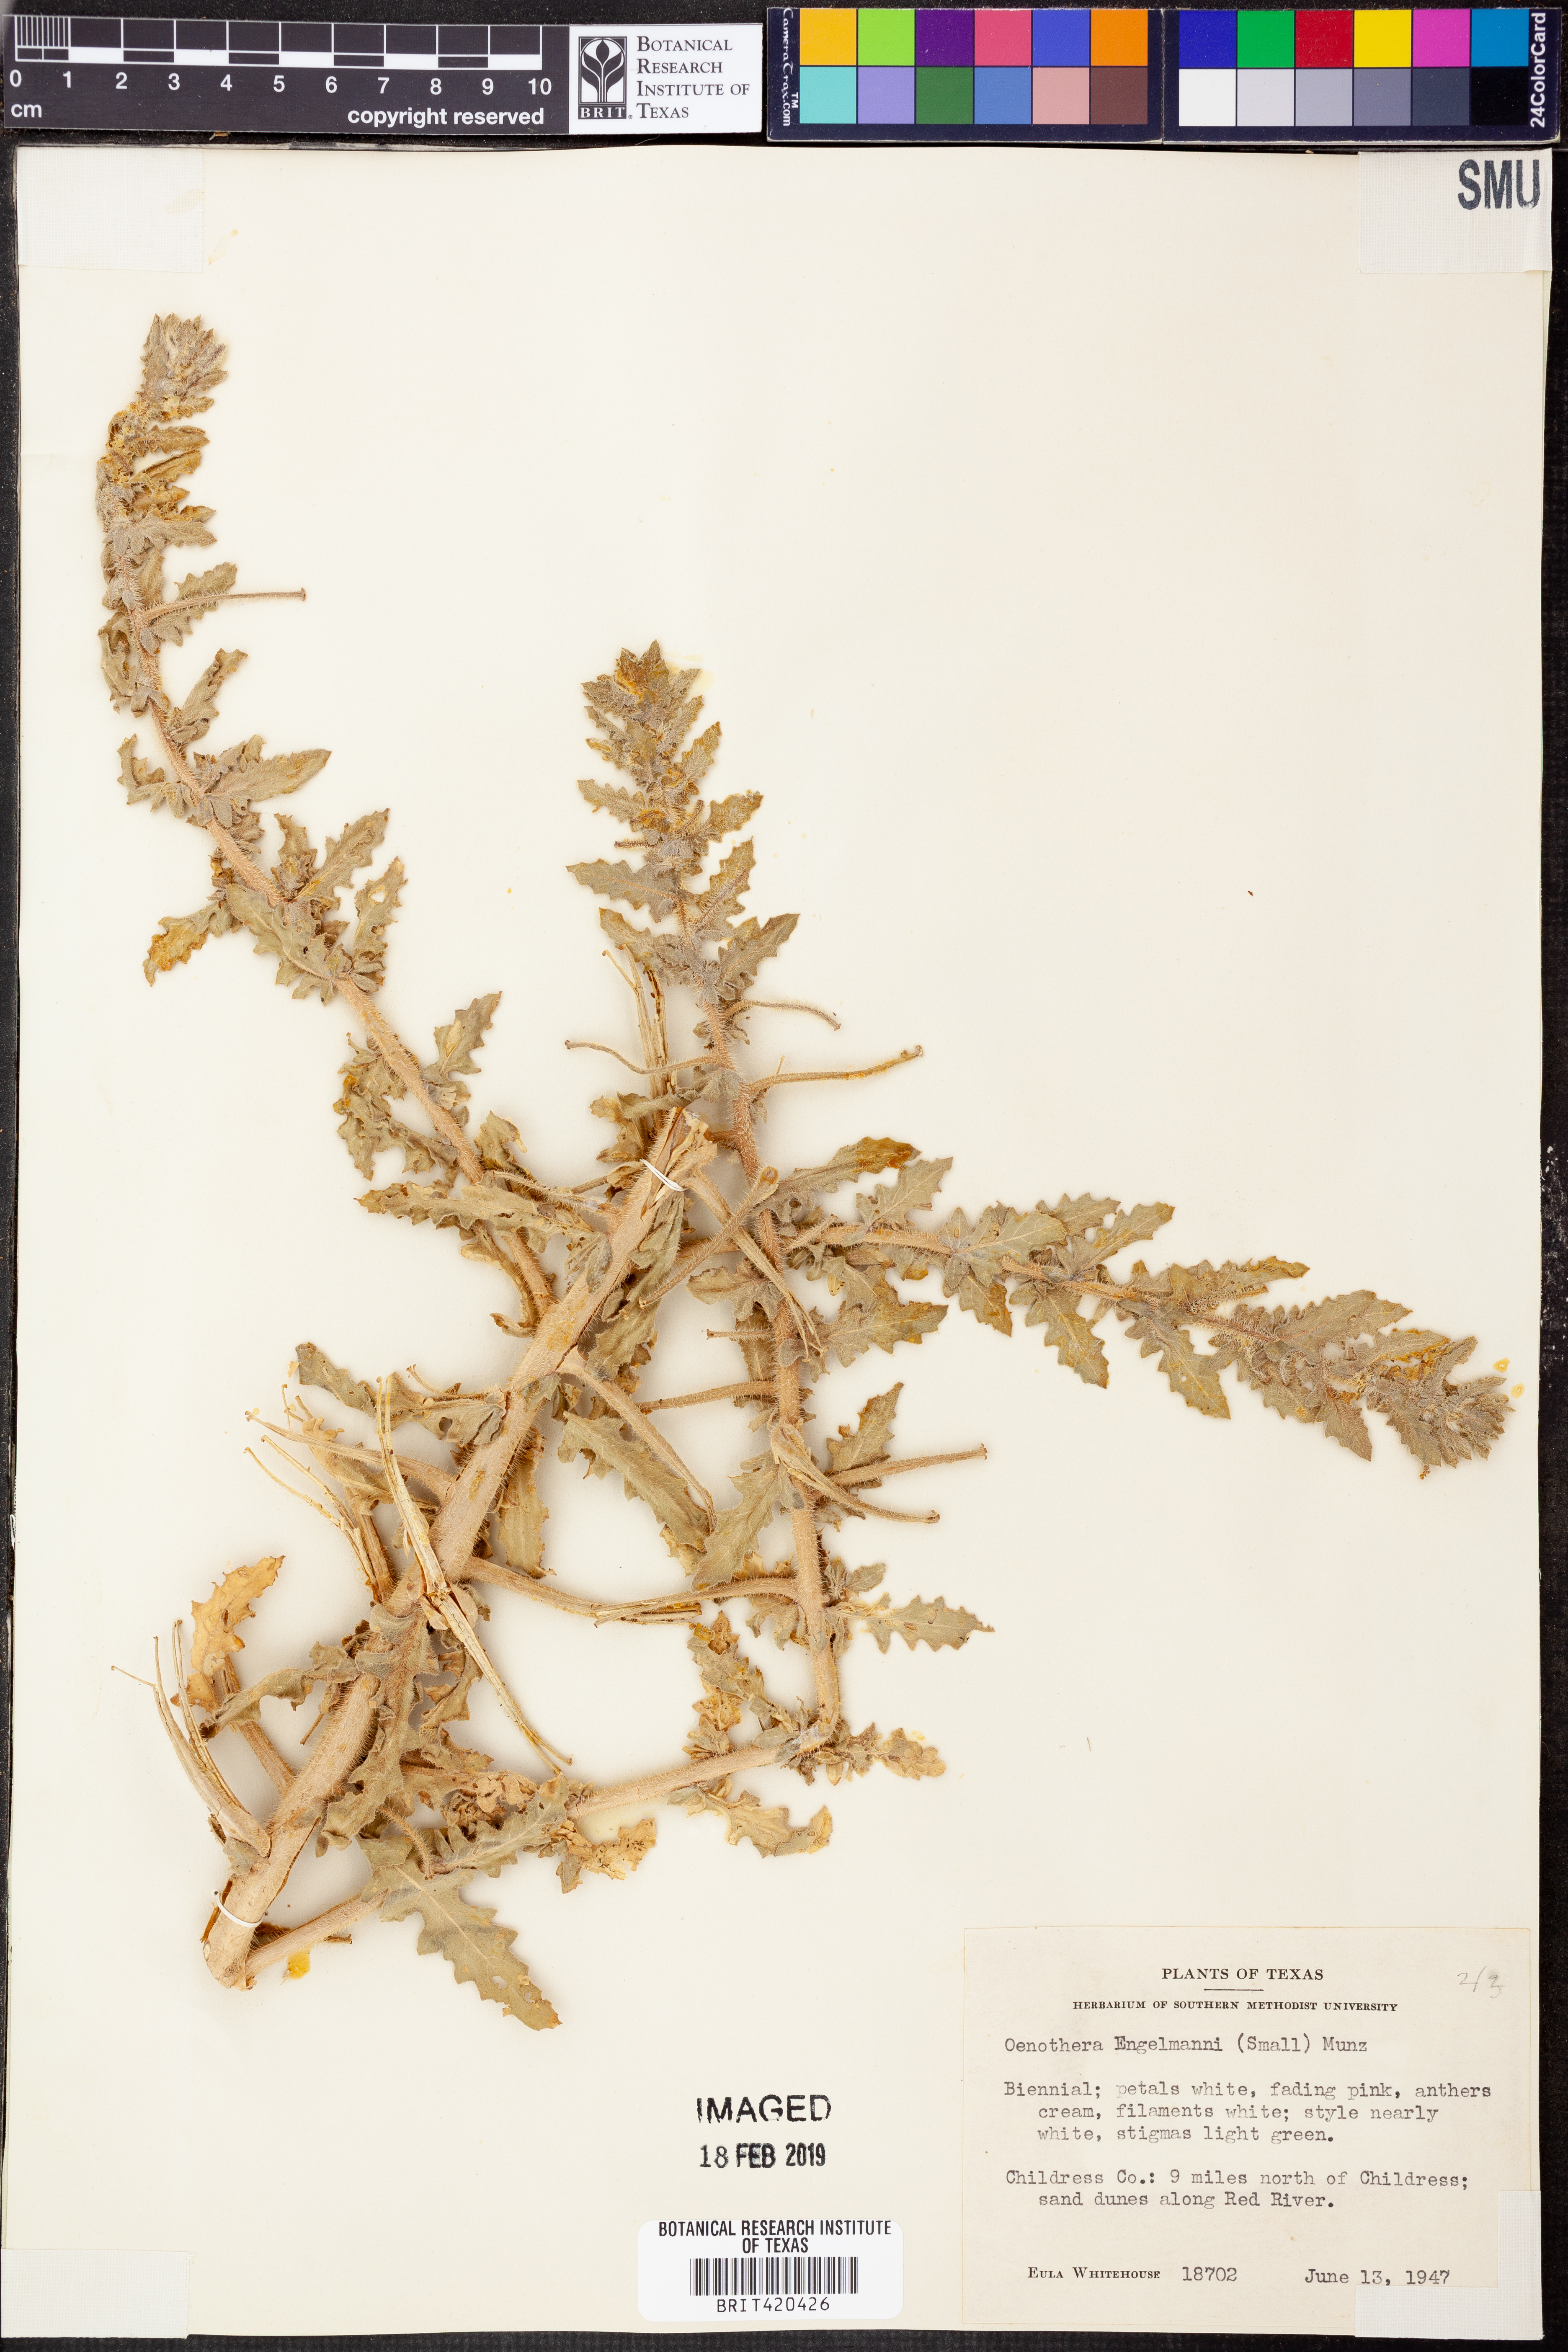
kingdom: Plantae
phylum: Tracheophyta
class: Magnoliopsida
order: Myrtales
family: Onagraceae
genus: Oenothera
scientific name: Oenothera engelmannii
